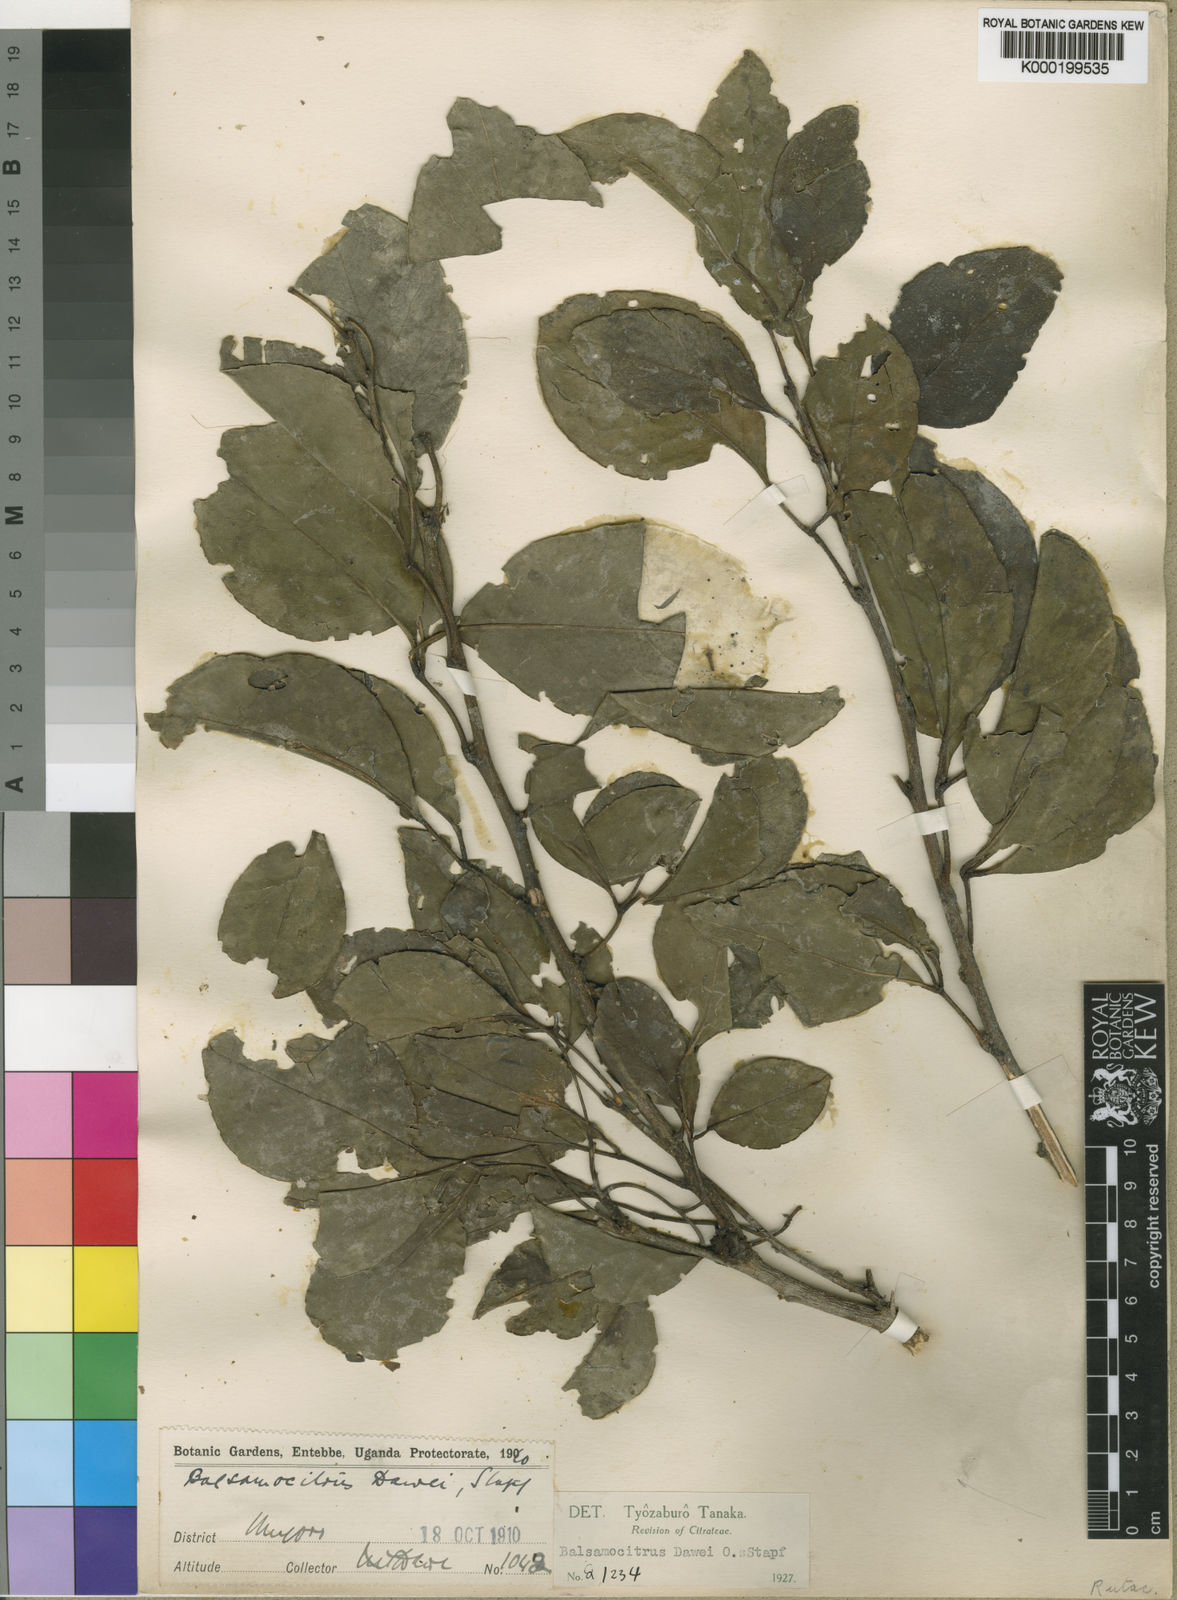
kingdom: Plantae
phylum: Tracheophyta
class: Magnoliopsida
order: Sapindales
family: Rutaceae
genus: Balsamocitrus
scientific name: Balsamocitrus dawei
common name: Uganda powder-flask-fruit
